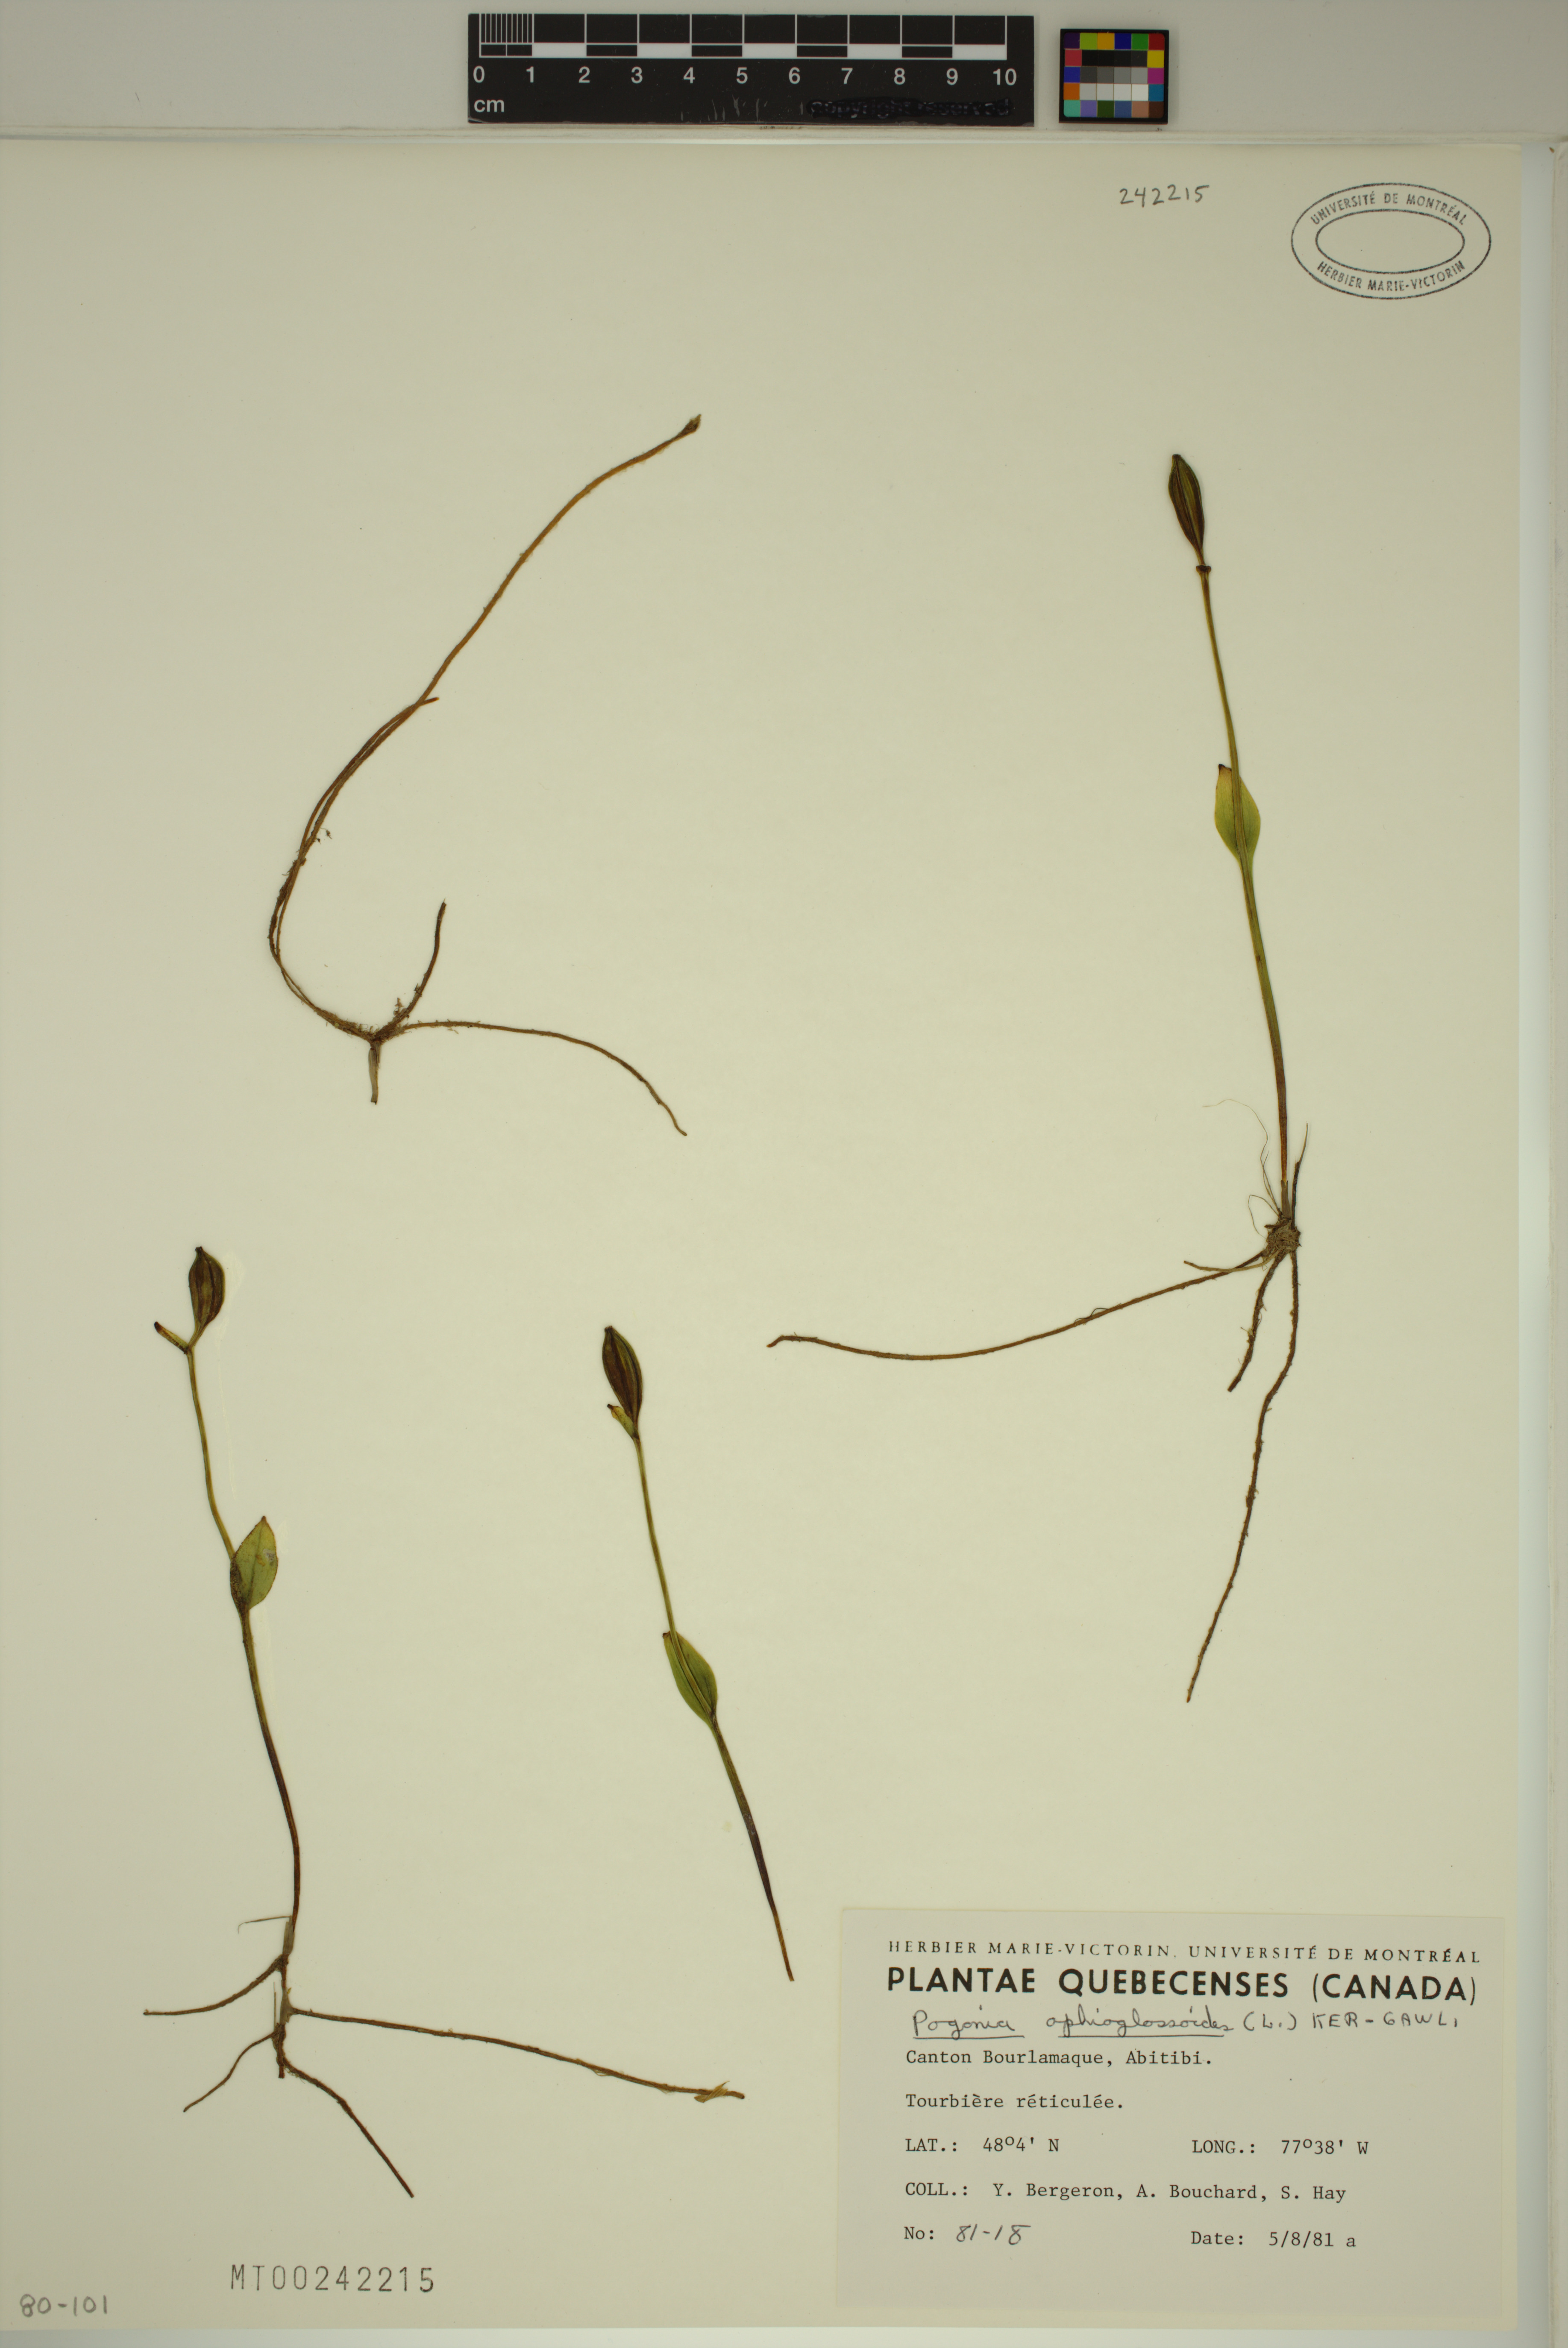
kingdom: Plantae
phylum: Tracheophyta
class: Liliopsida
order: Asparagales
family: Orchidaceae
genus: Pogonia
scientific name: Pogonia ophioglossoides
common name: Rose pogonia
